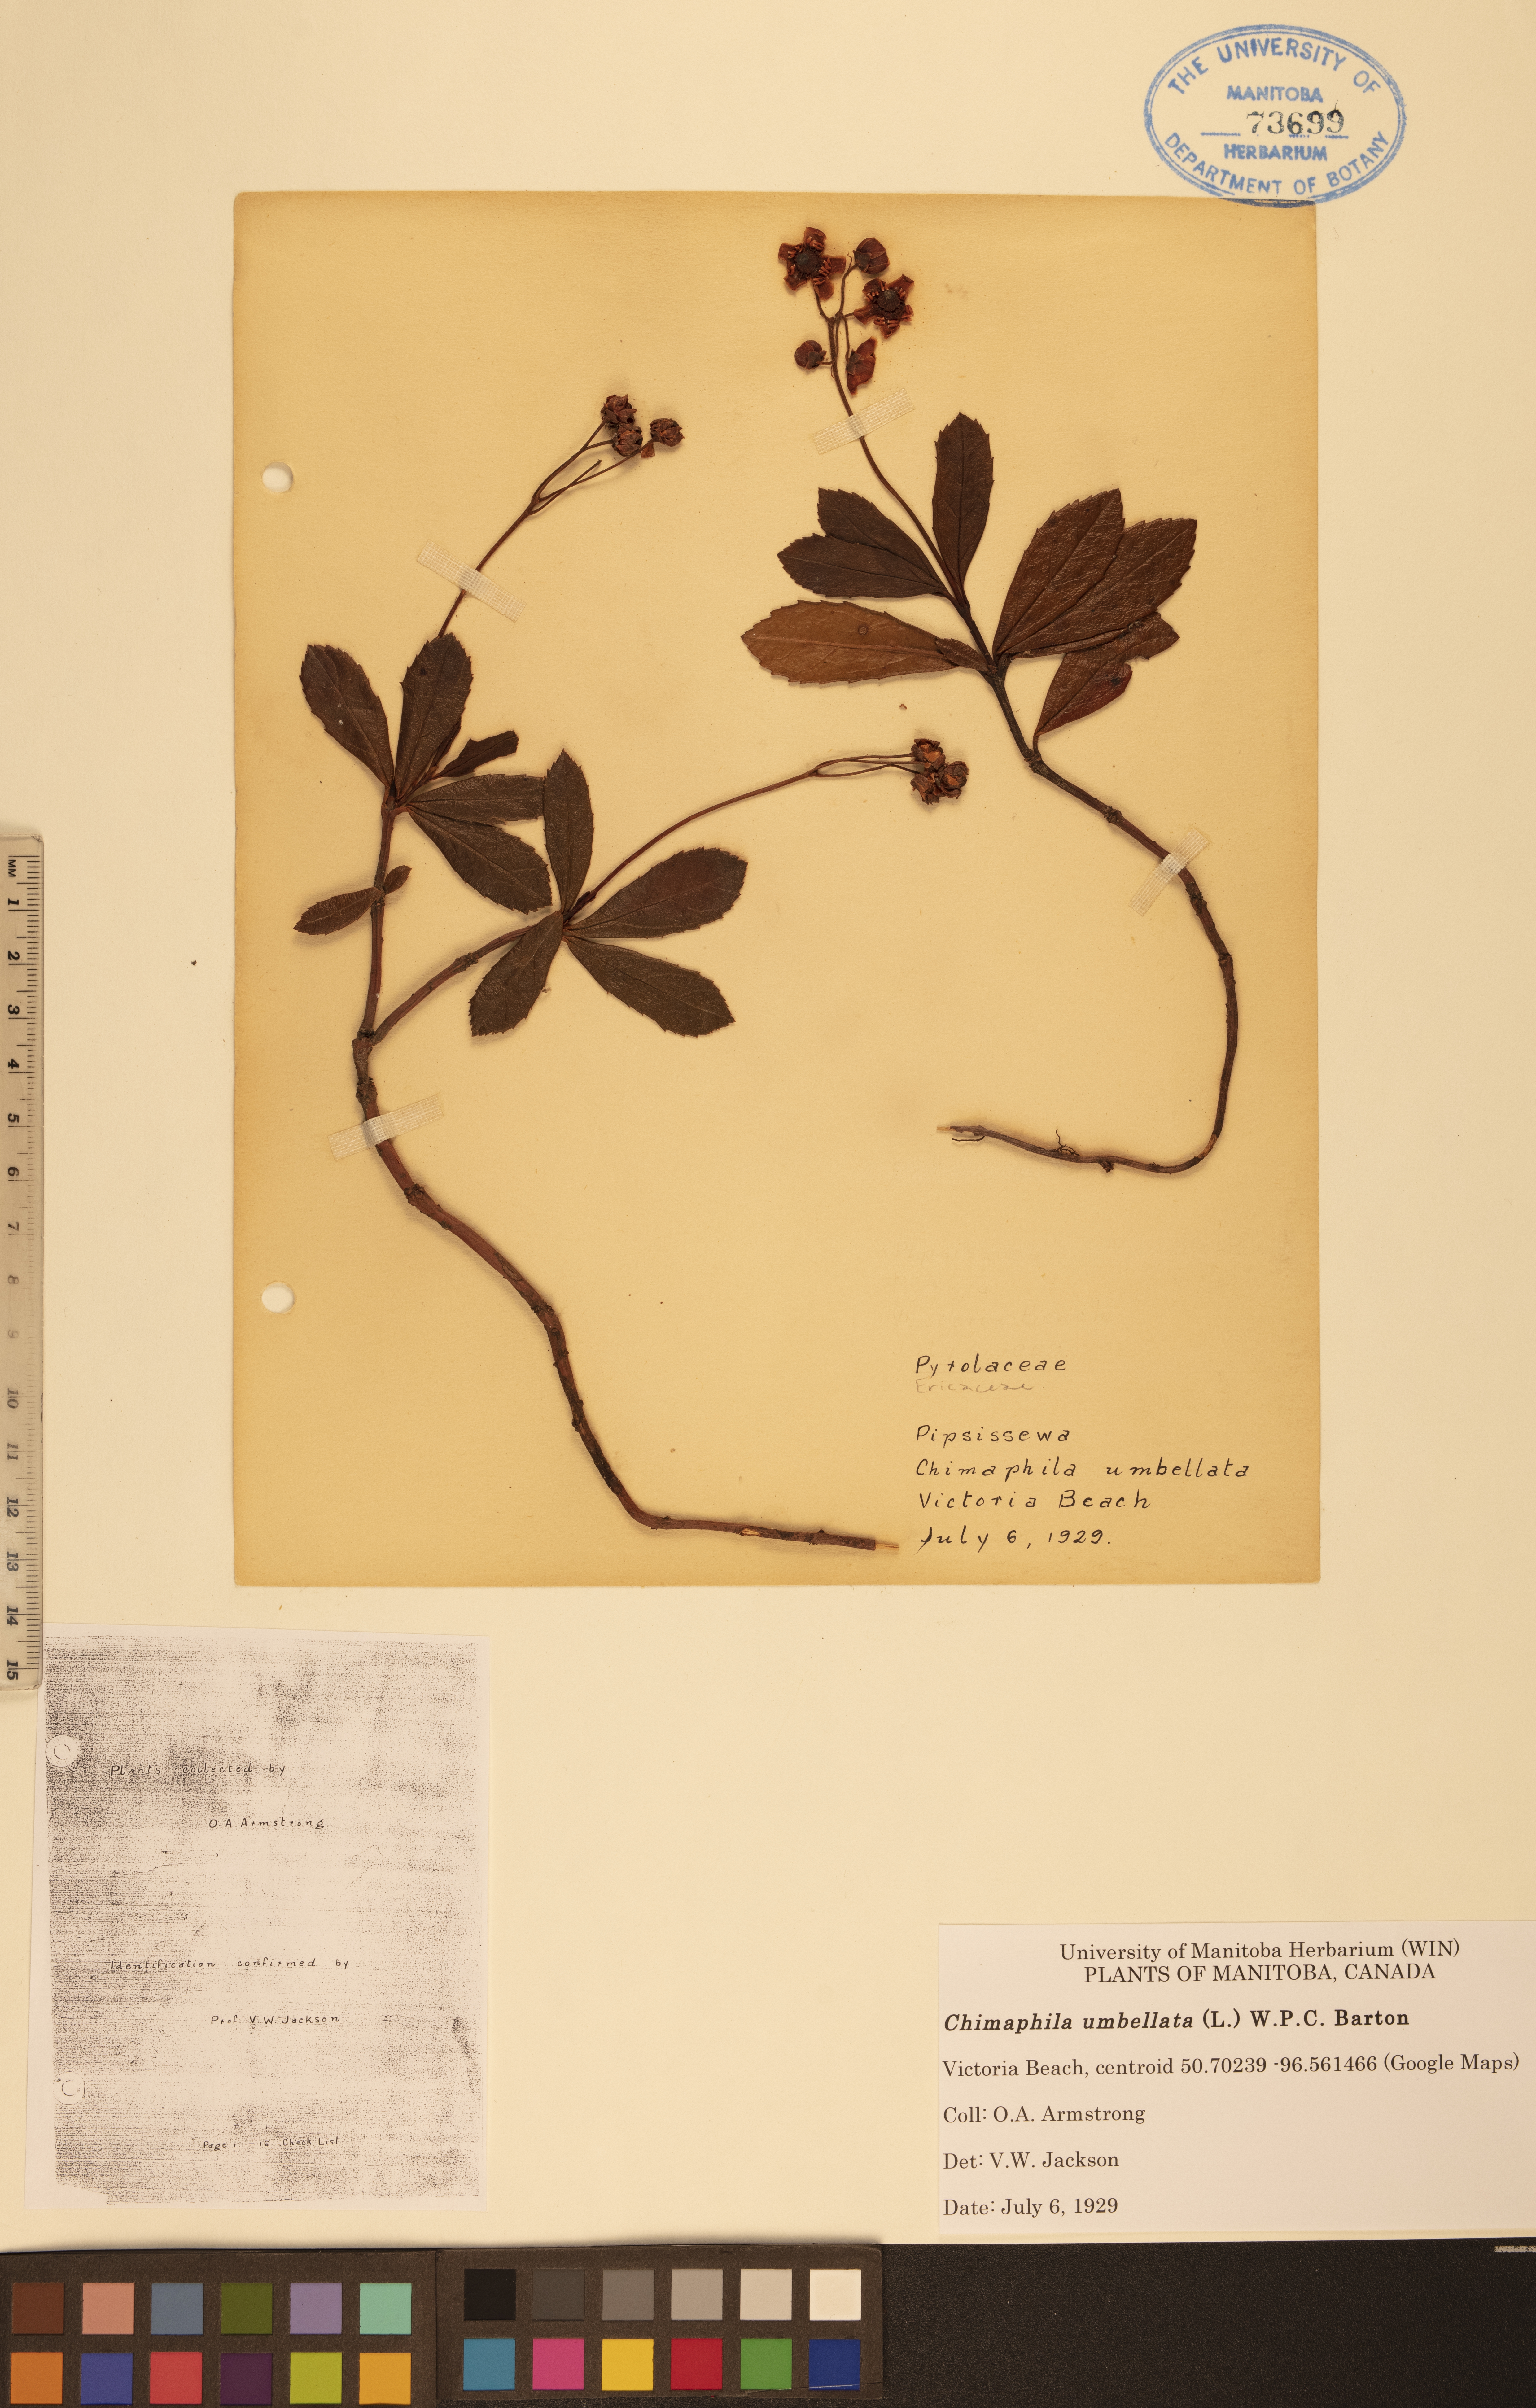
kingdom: Plantae
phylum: Tracheophyta
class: Magnoliopsida
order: Ericales
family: Ericaceae
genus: Chimaphila
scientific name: Chimaphila umbellata
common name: Pipsissewa
